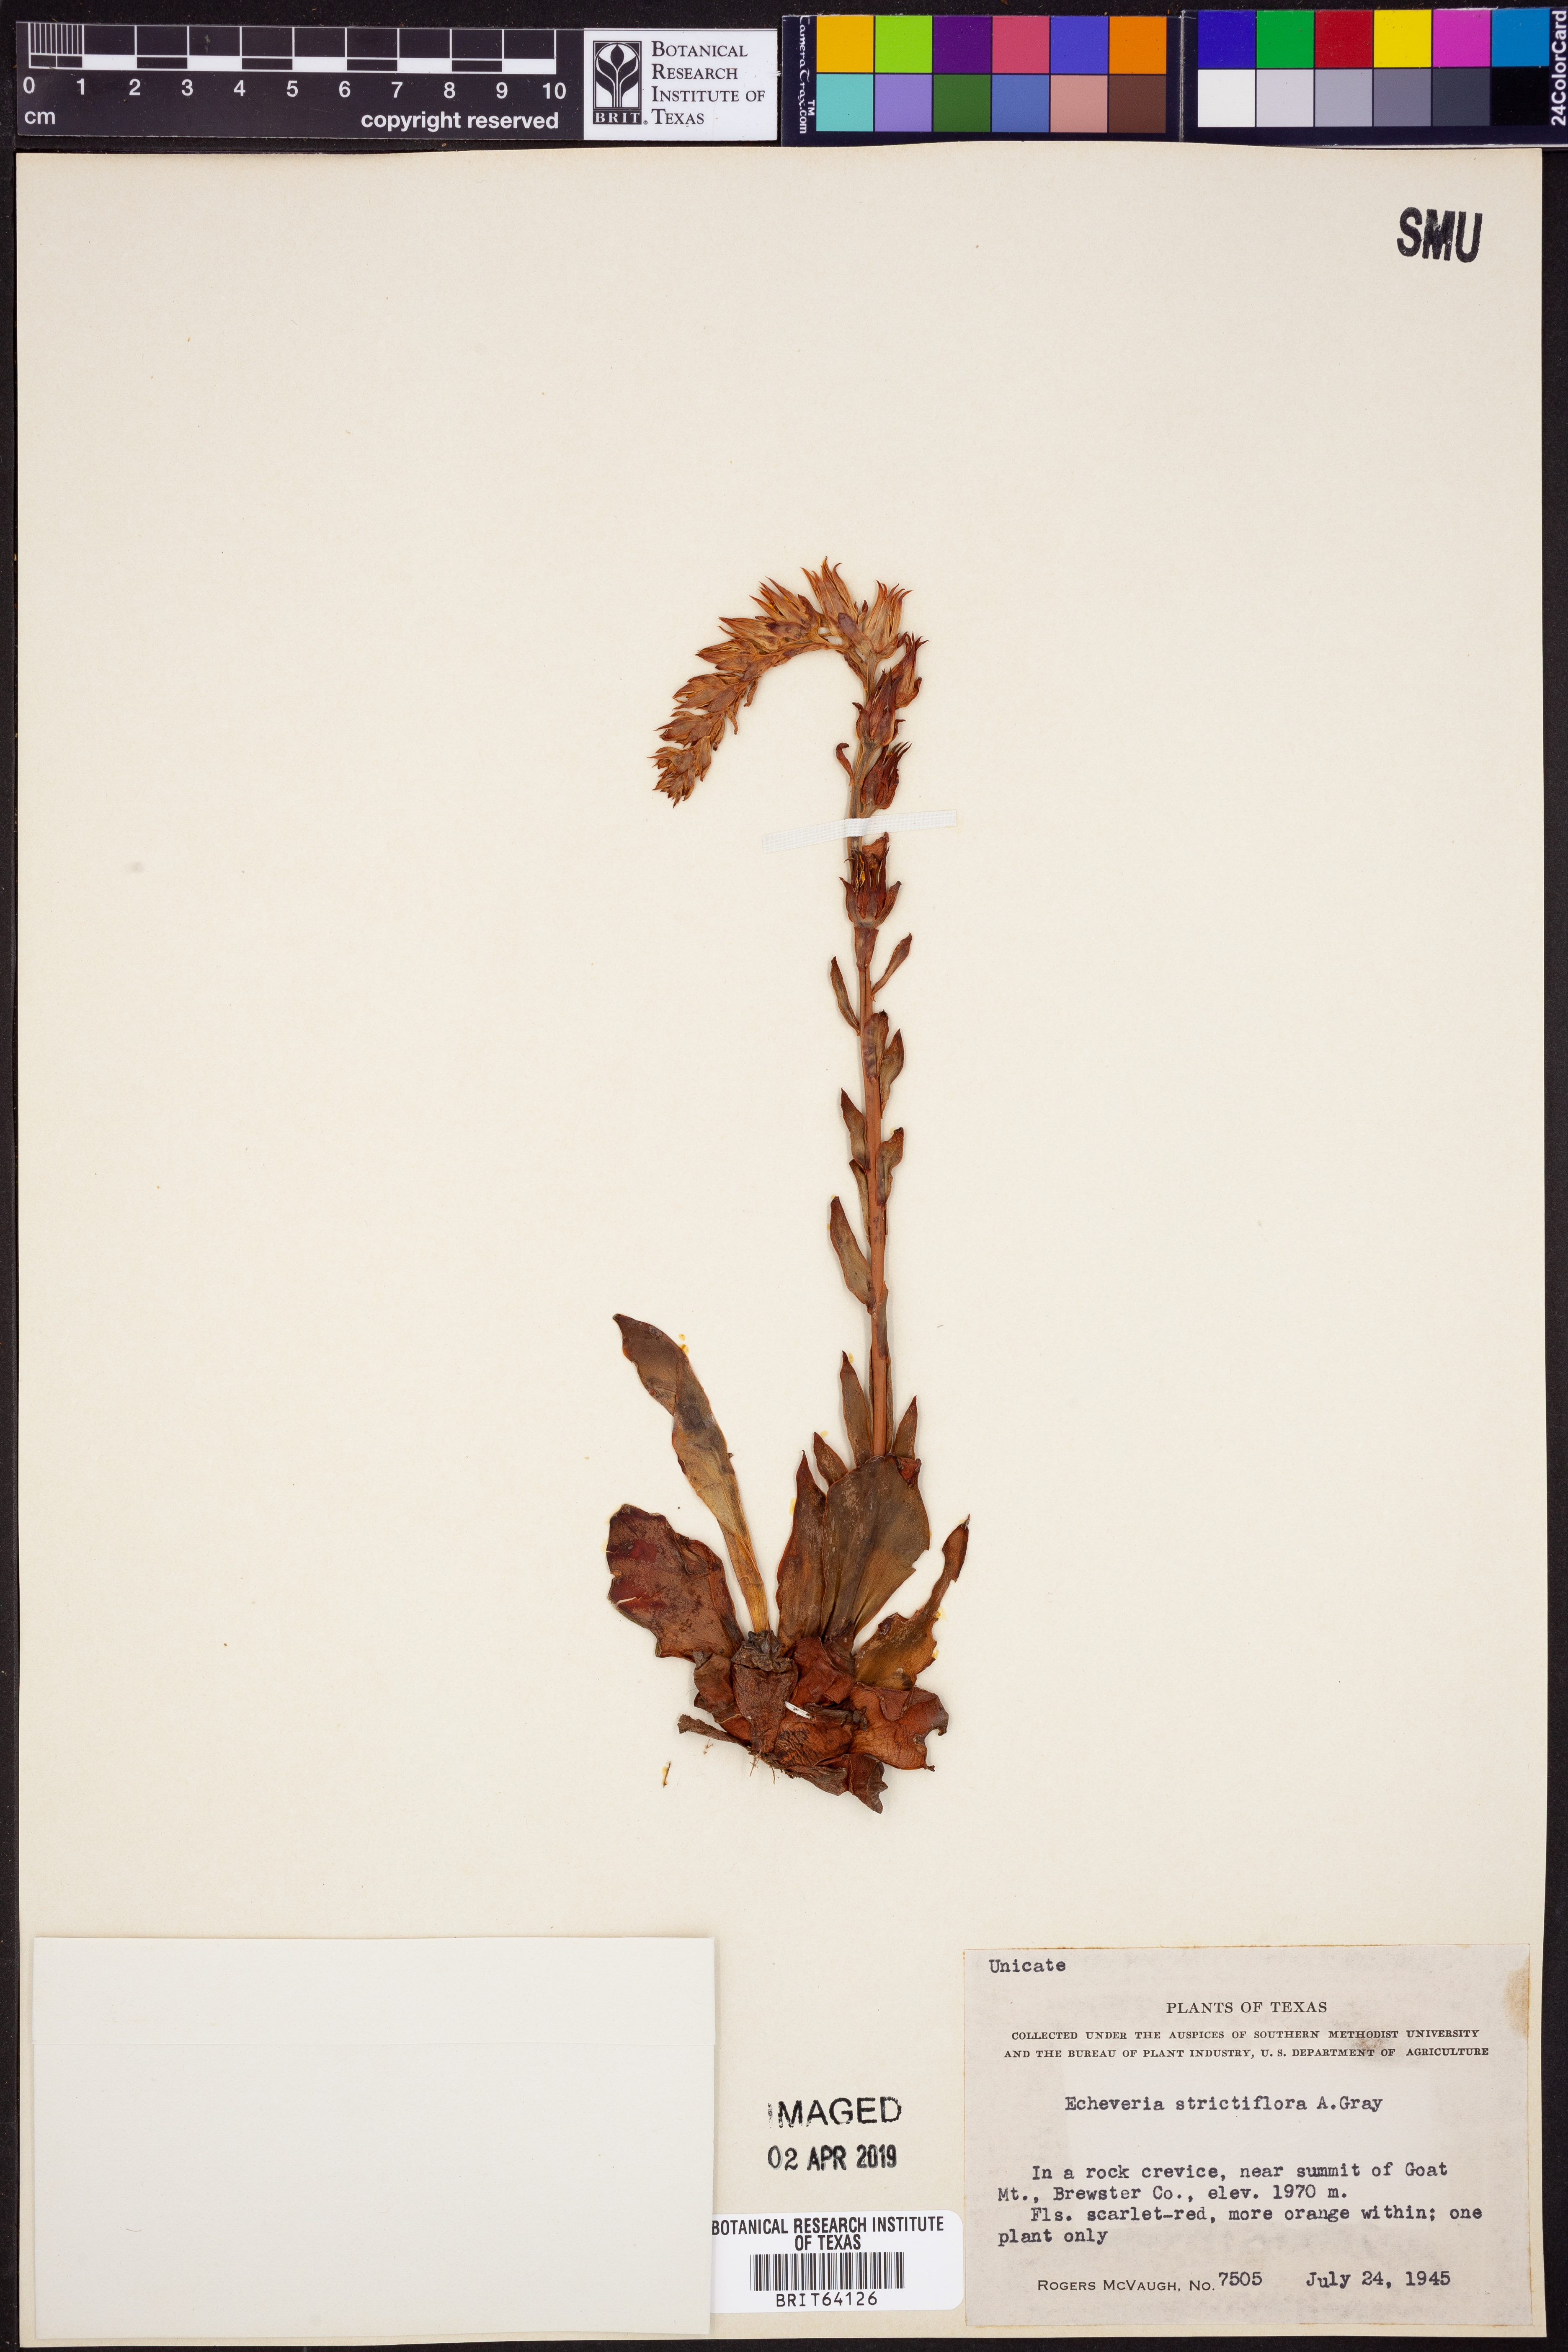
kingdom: Plantae
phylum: Tracheophyta
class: Magnoliopsida
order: Saxifragales
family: Crassulaceae
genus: Echeveria
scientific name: Echeveria strictiflora
